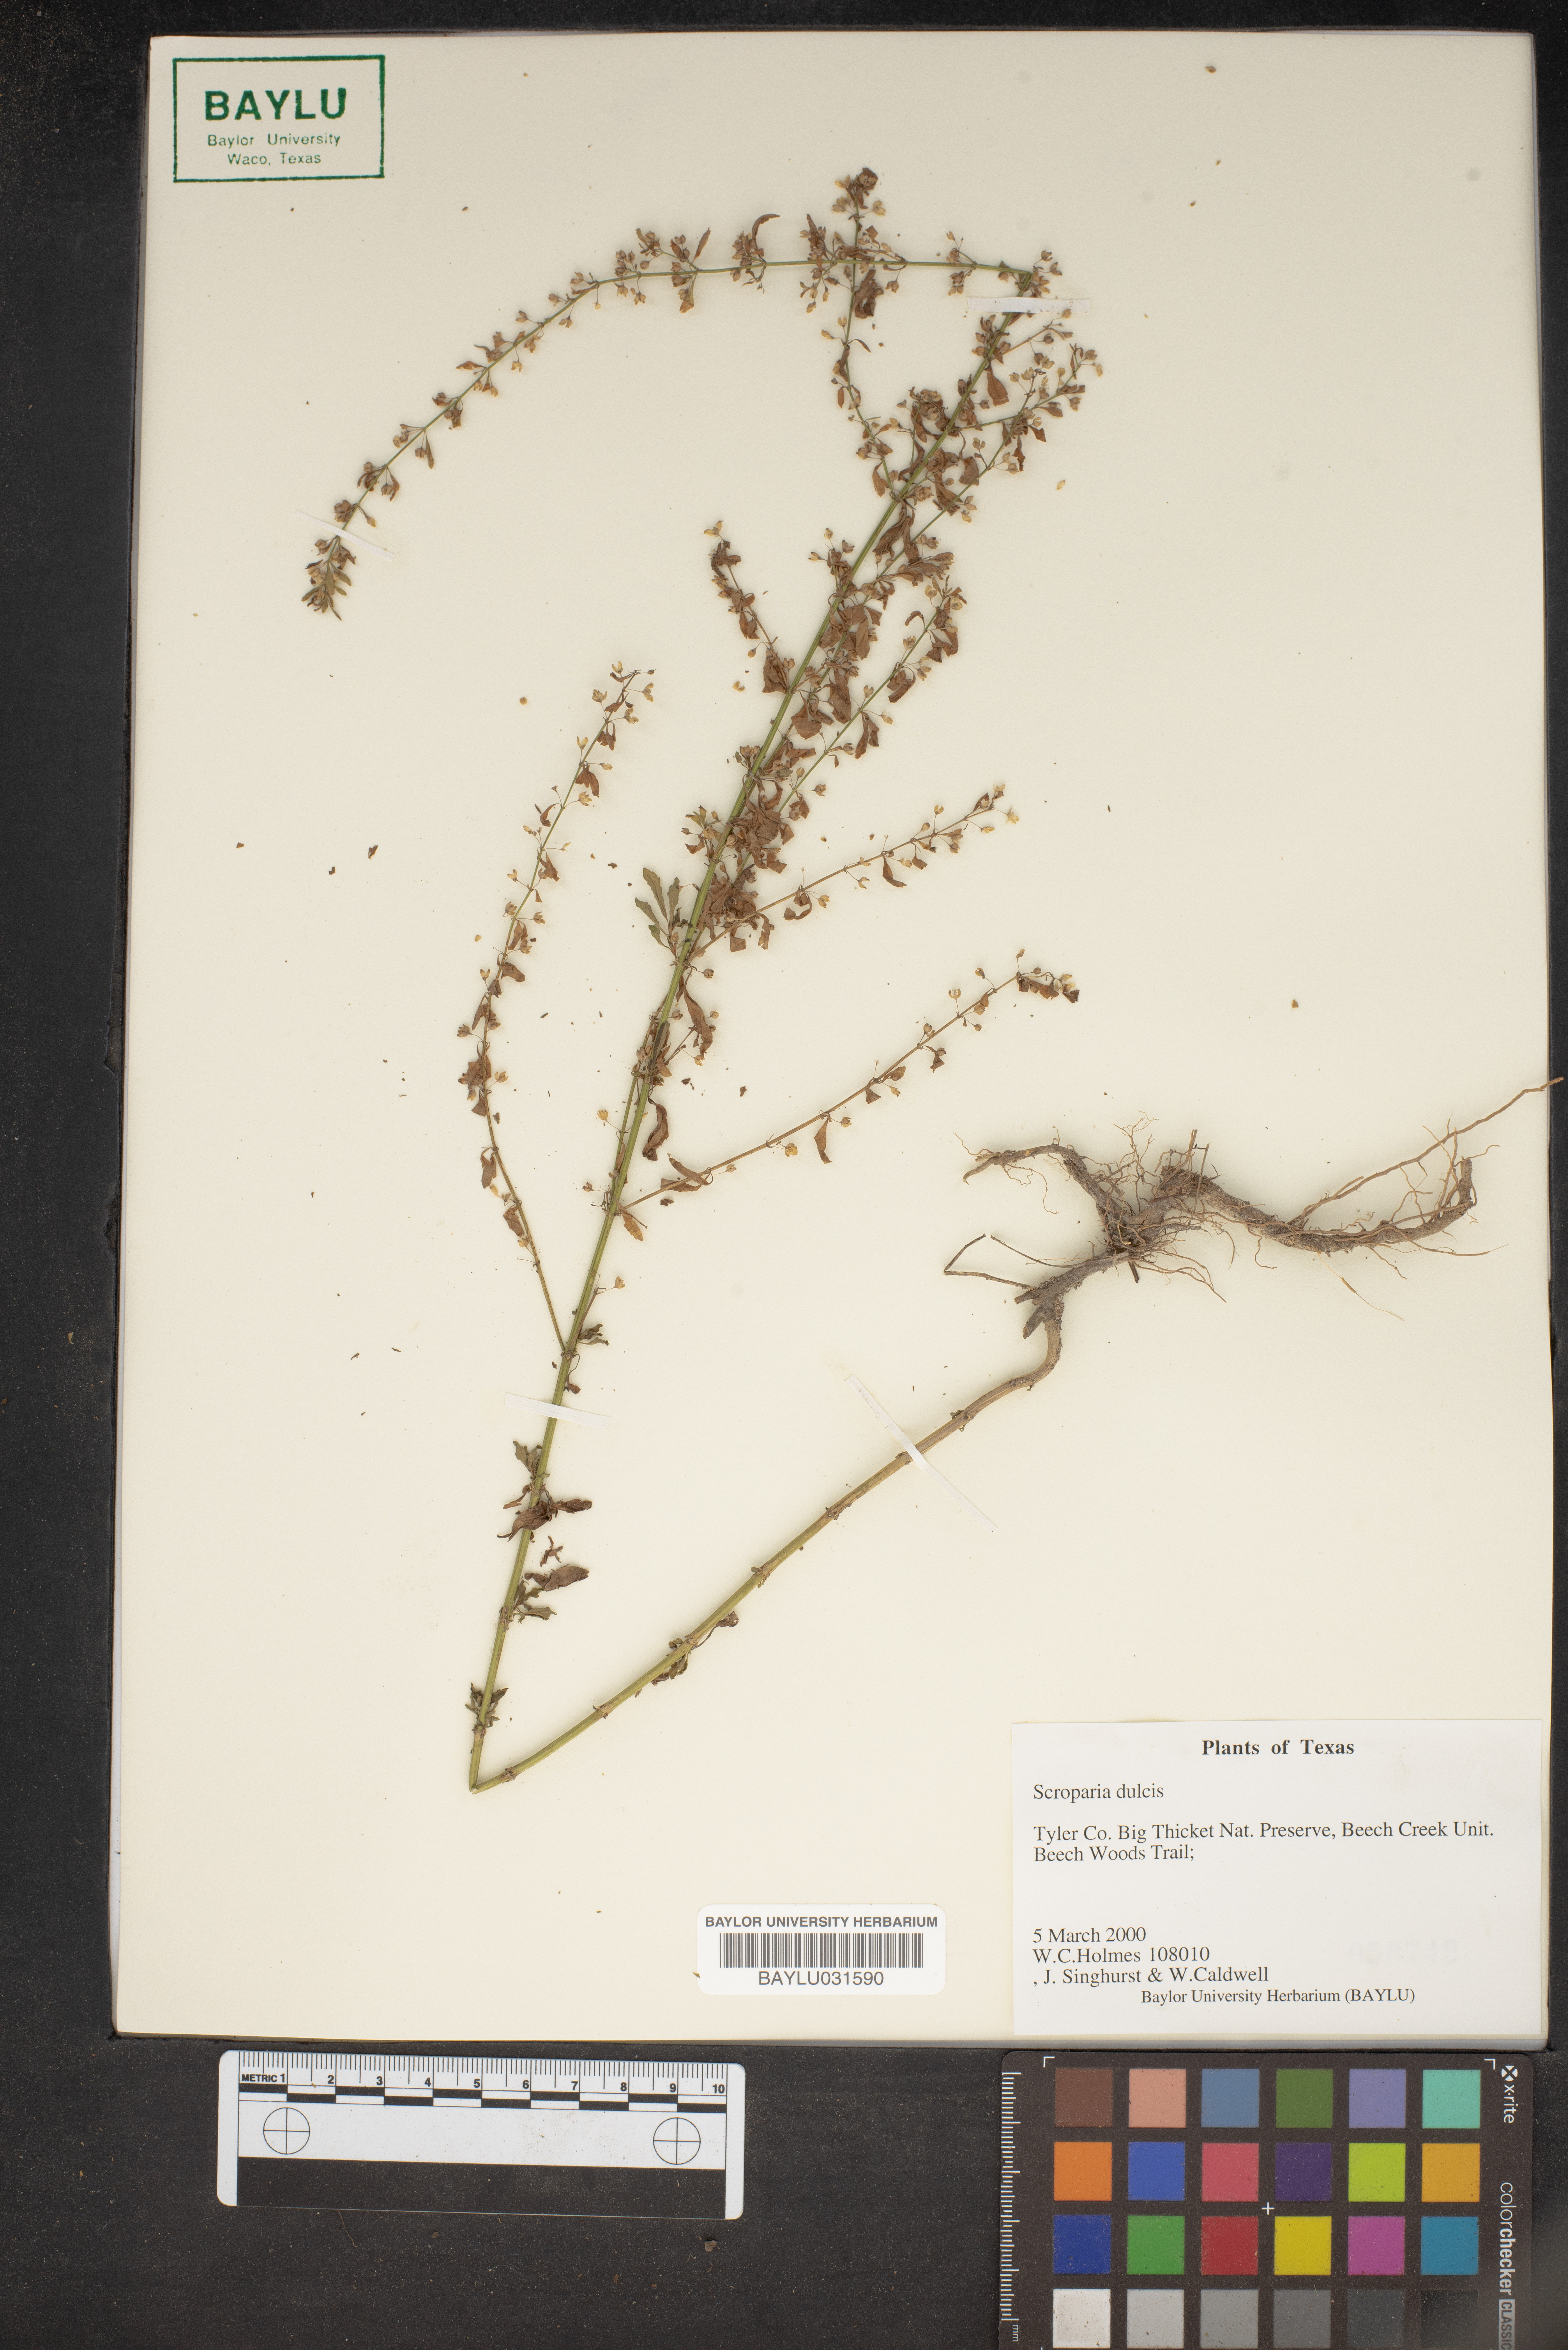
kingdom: Plantae
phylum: Tracheophyta
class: Magnoliopsida
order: Lamiales
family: Plantaginaceae
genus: Scoparia
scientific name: Scoparia dulcis
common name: Scoparia-weed
